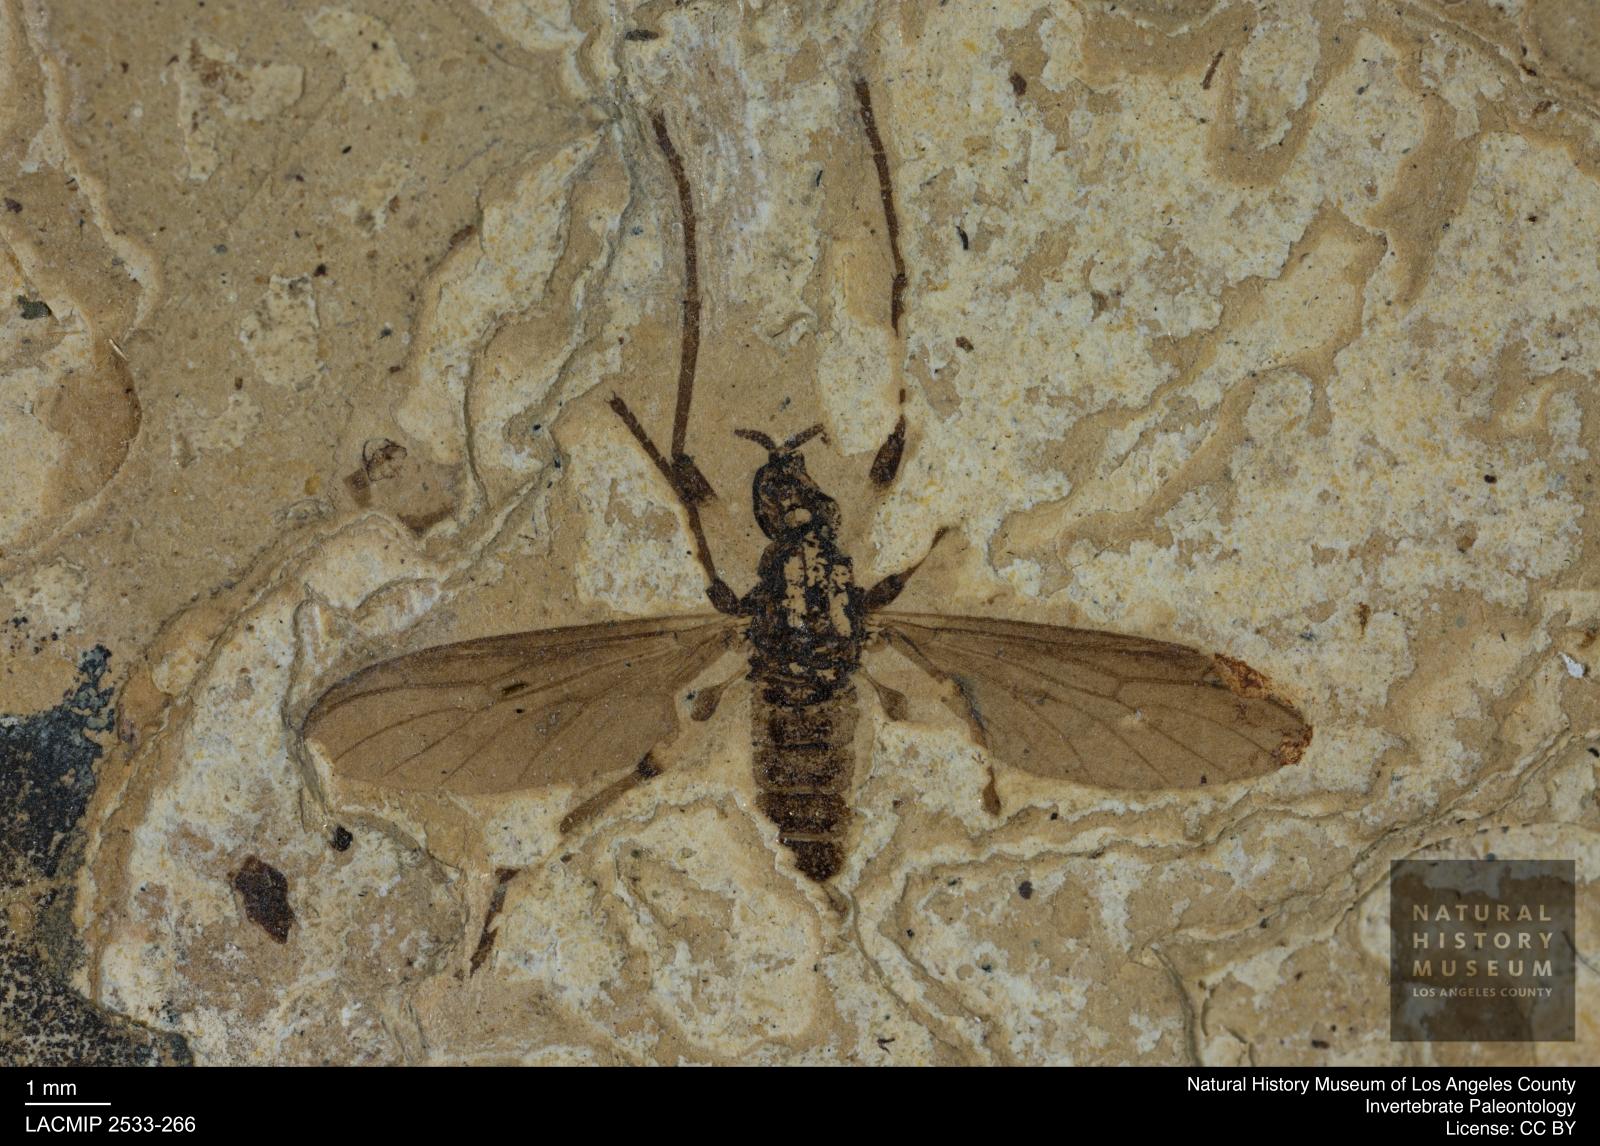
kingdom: Animalia
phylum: Arthropoda
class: Insecta
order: Diptera
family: Bibionidae
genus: Plecia
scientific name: Plecia
